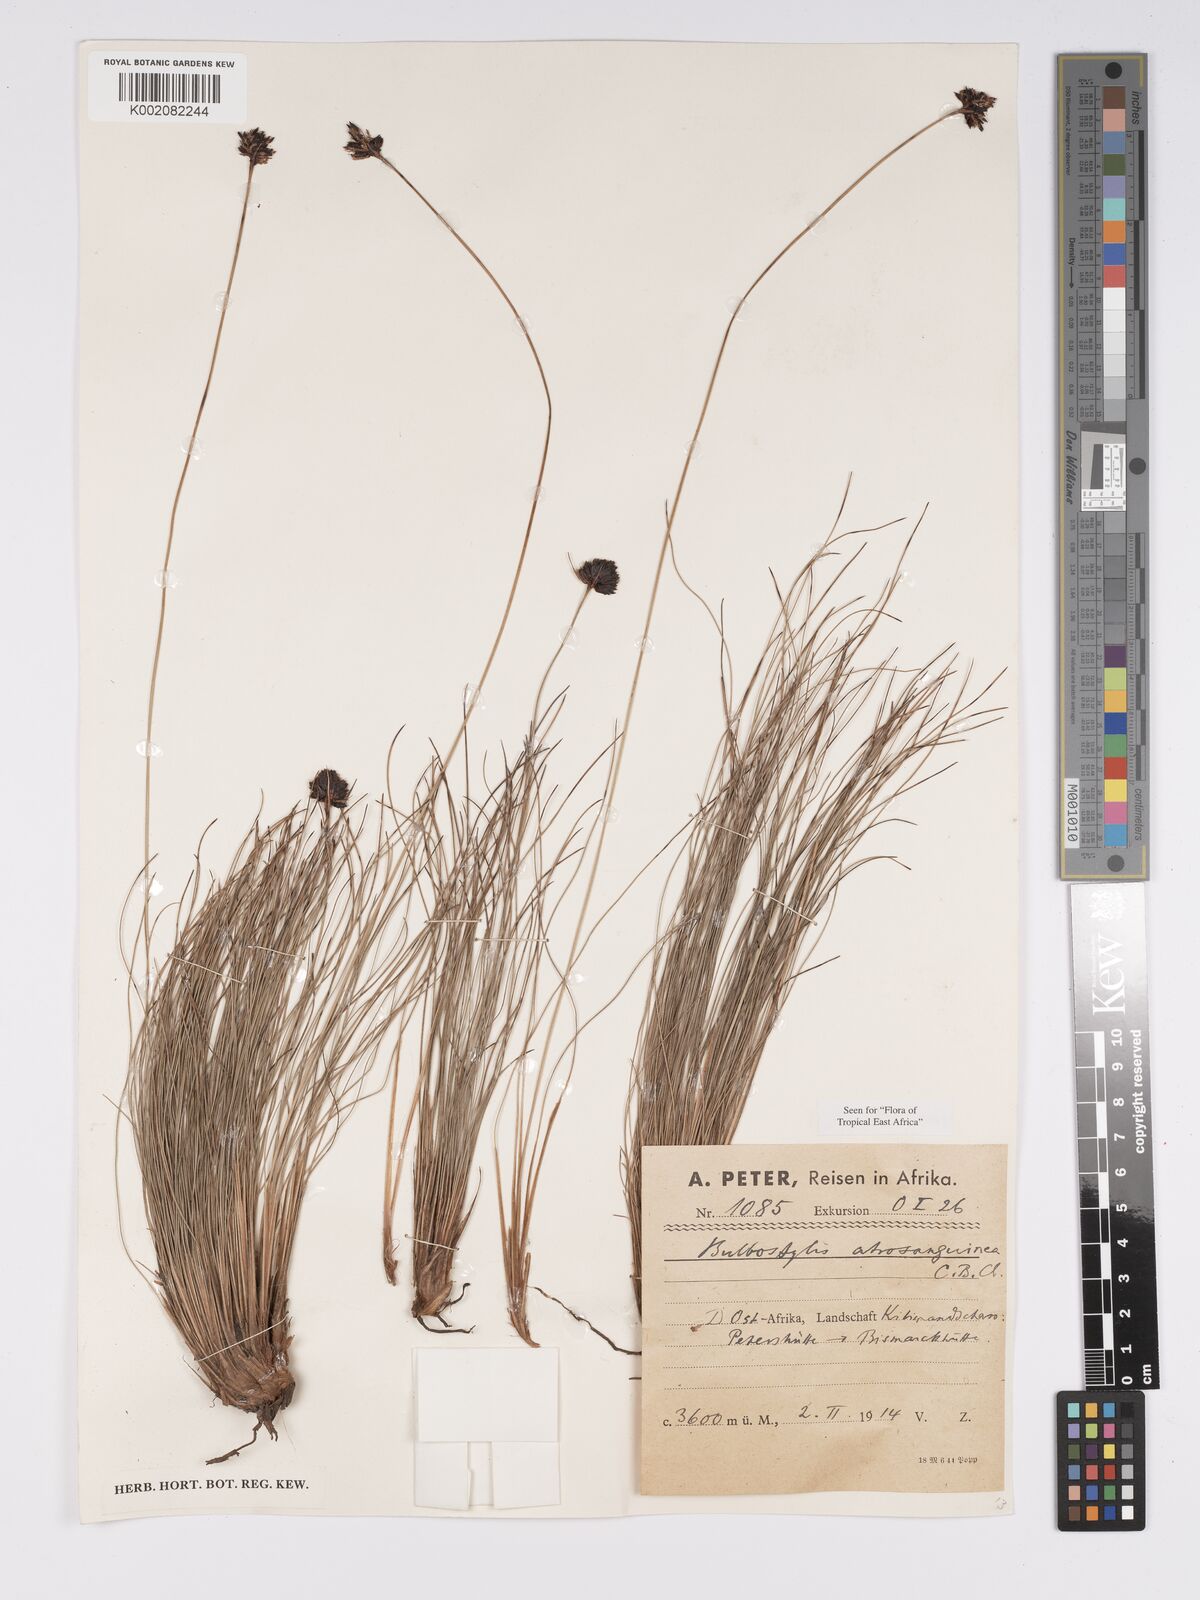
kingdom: Plantae
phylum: Tracheophyta
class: Liliopsida
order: Poales
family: Cyperaceae
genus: Bulbostylis
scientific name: Bulbostylis atrosanguinea
